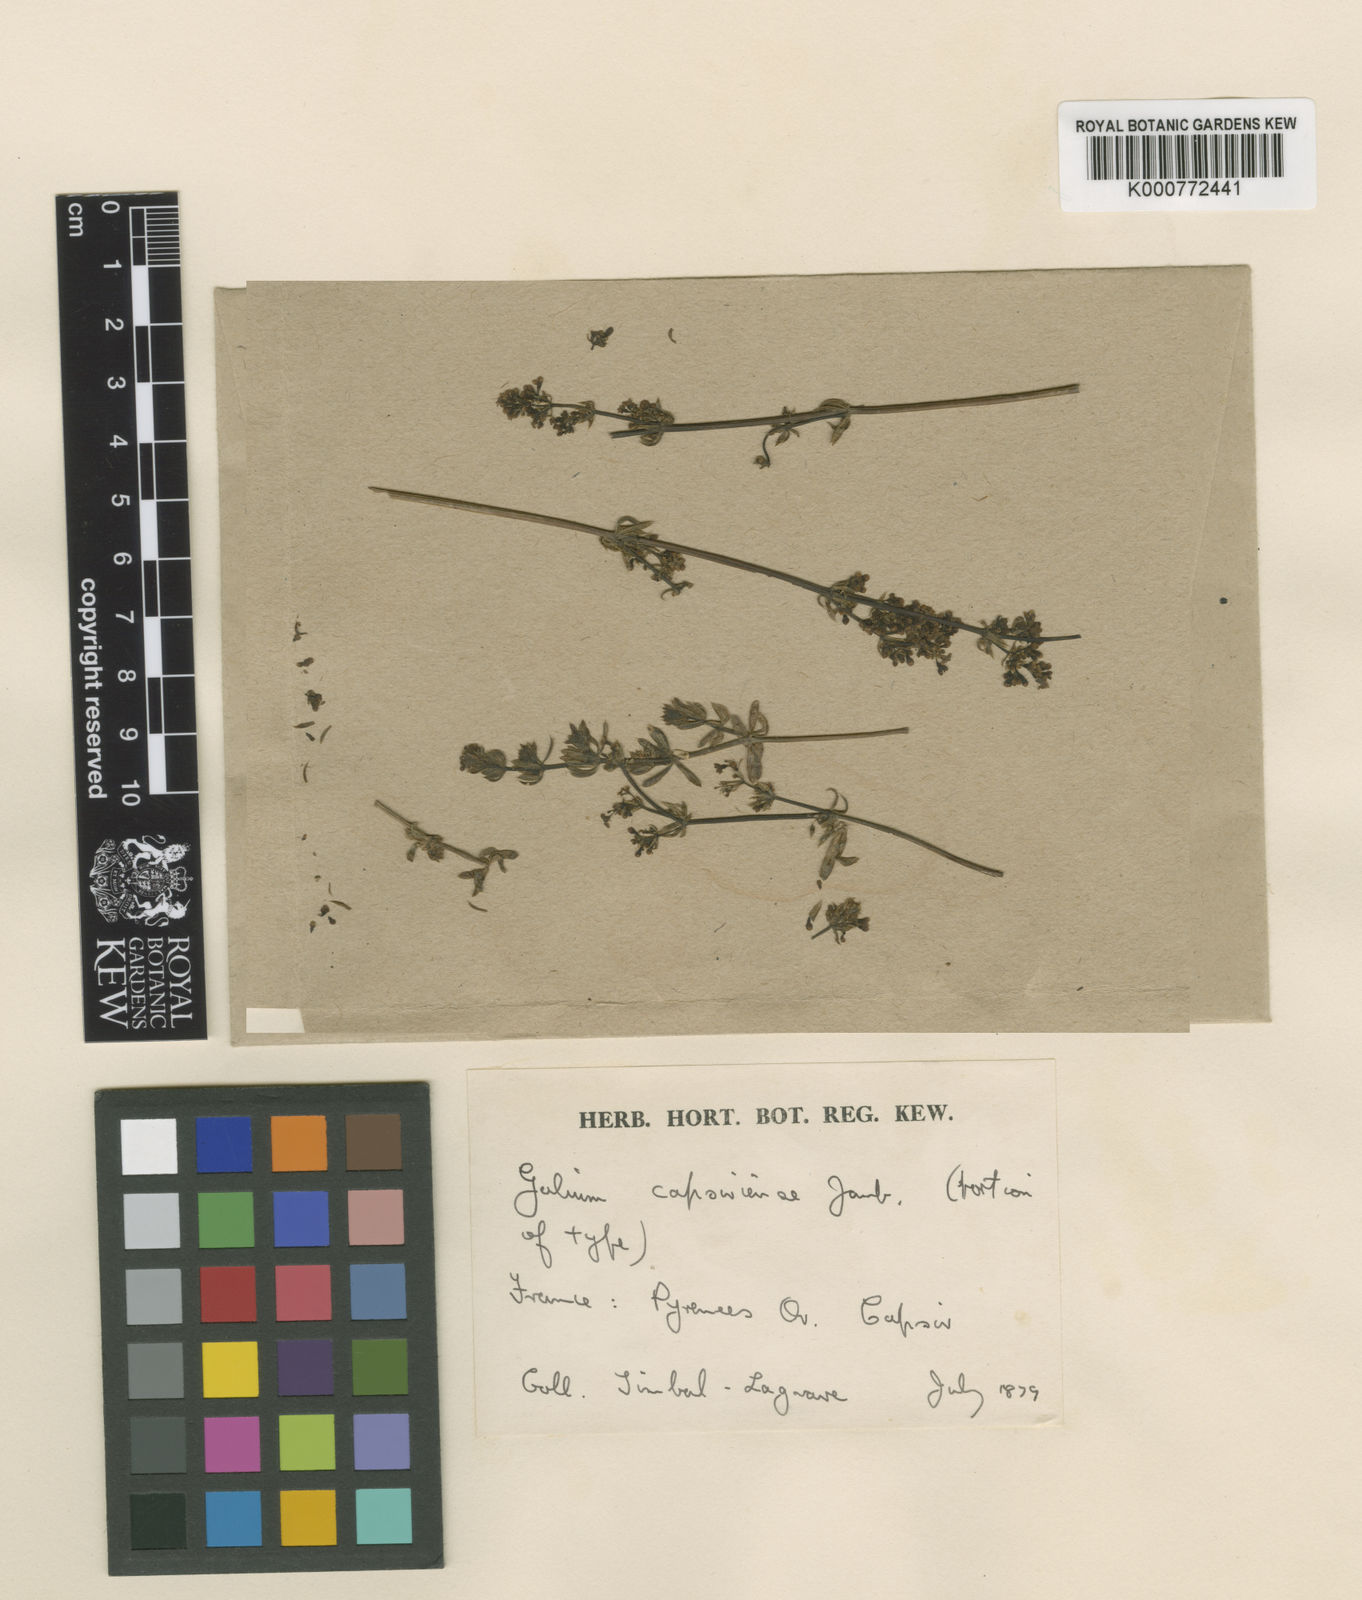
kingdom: Plantae
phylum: Tracheophyta
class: Magnoliopsida
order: Gentianales
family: Rubiaceae
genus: Galium
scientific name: Galium album
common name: White bedstraw
